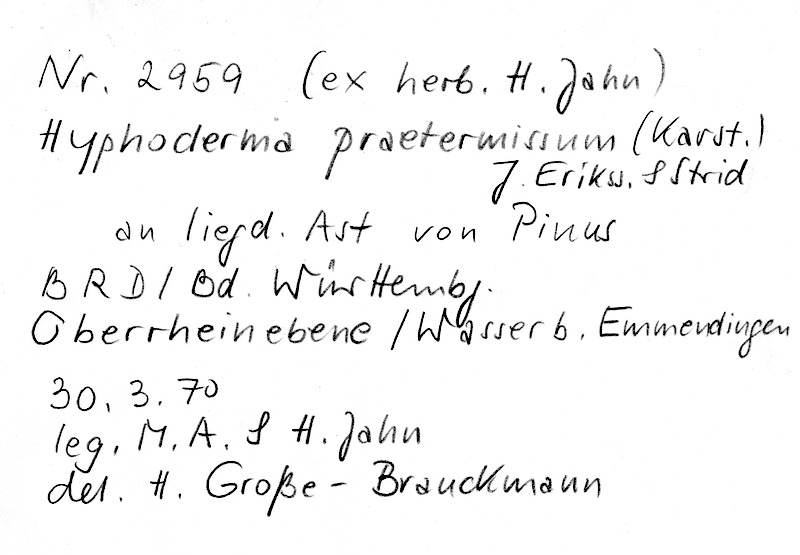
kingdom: Fungi
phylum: Basidiomycota
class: Agaricomycetes
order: Hymenochaetales
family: Rickenellaceae
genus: Peniophorella
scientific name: Peniophorella praetermissa
